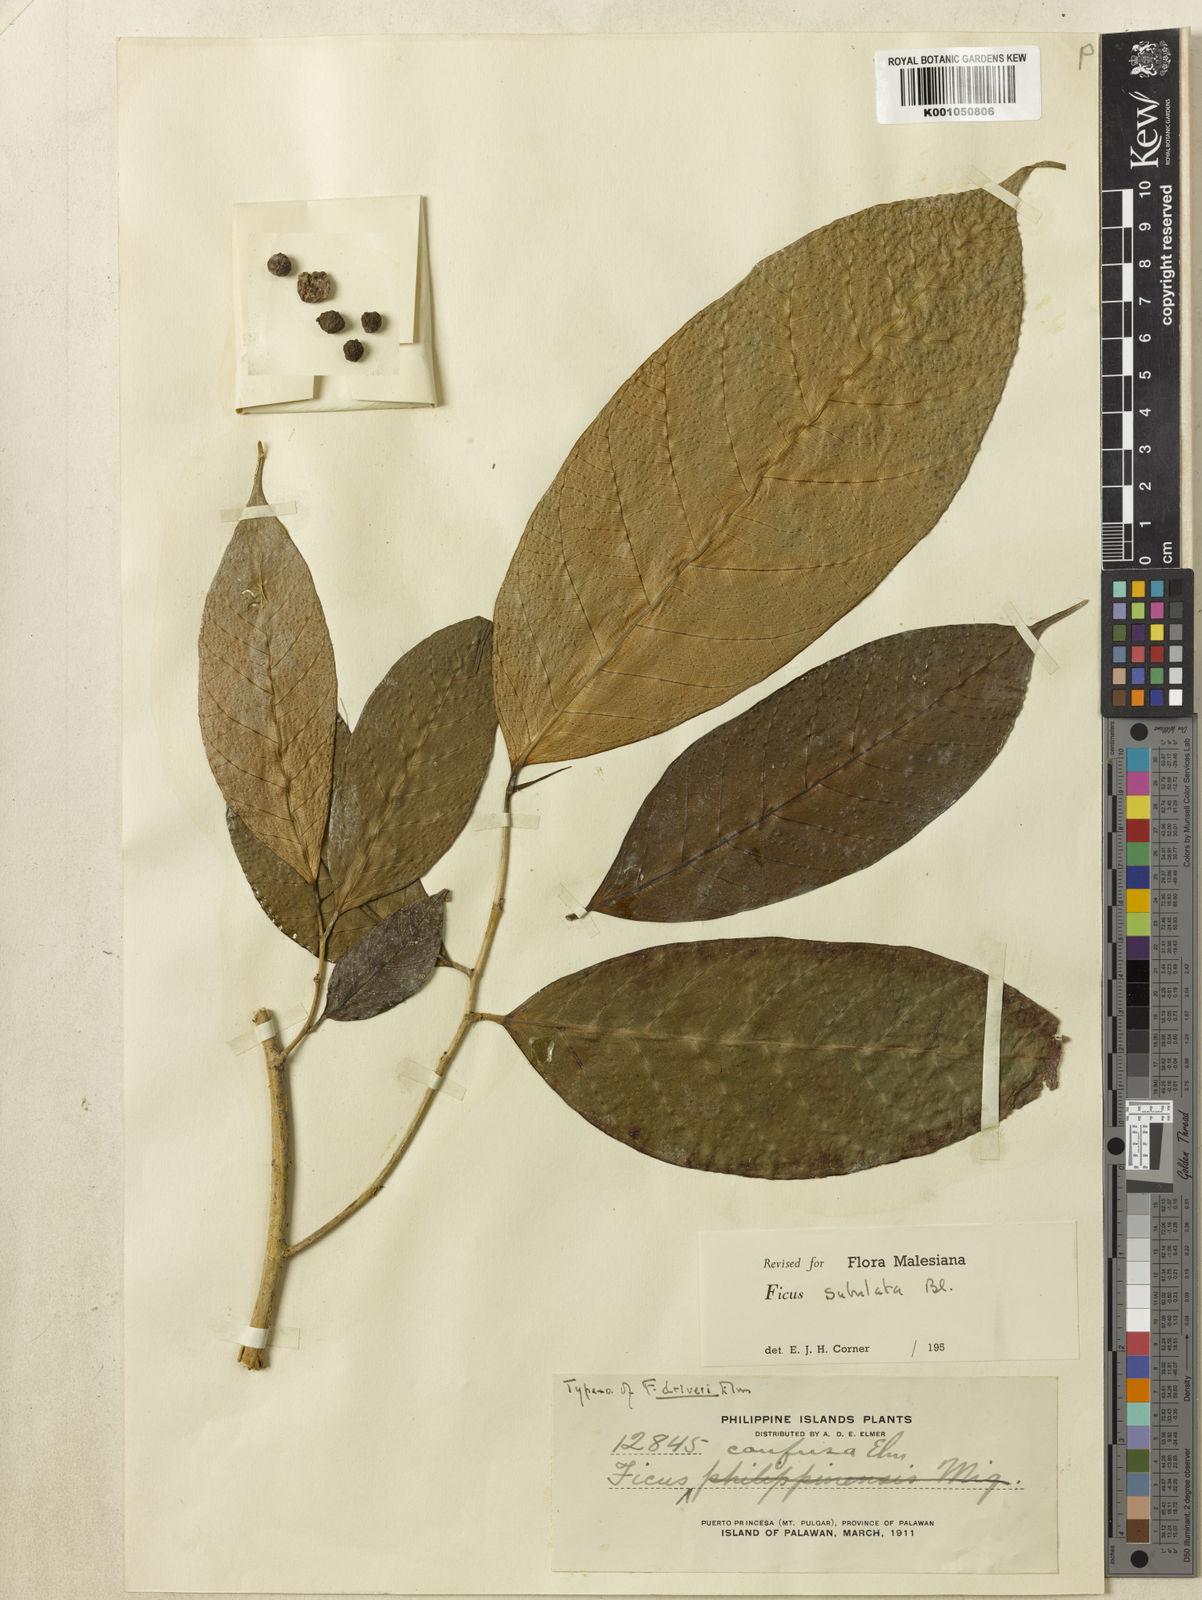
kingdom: Plantae
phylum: Tracheophyta
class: Magnoliopsida
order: Rosales
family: Moraceae
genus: Ficus
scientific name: Ficus subulata
